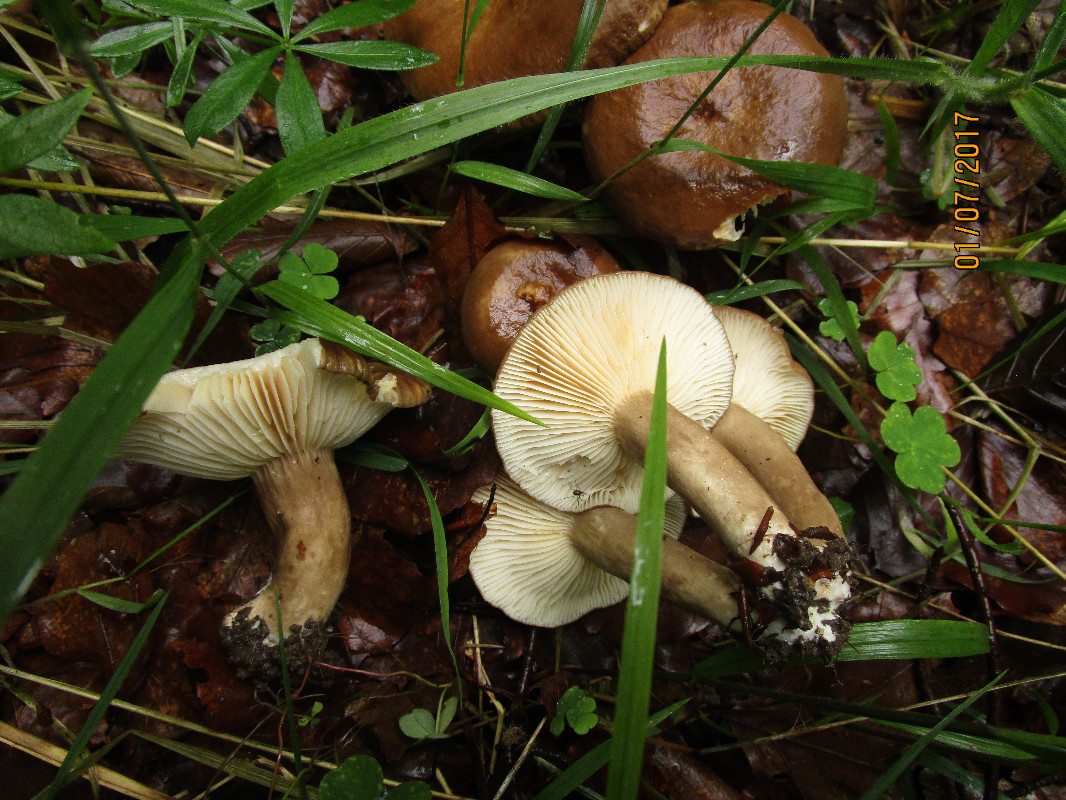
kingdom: Fungi
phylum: Basidiomycota
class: Agaricomycetes
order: Russulales
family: Russulaceae
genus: Lactarius
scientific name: Lactarius romagnesii
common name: fjernbladet mælkehat
